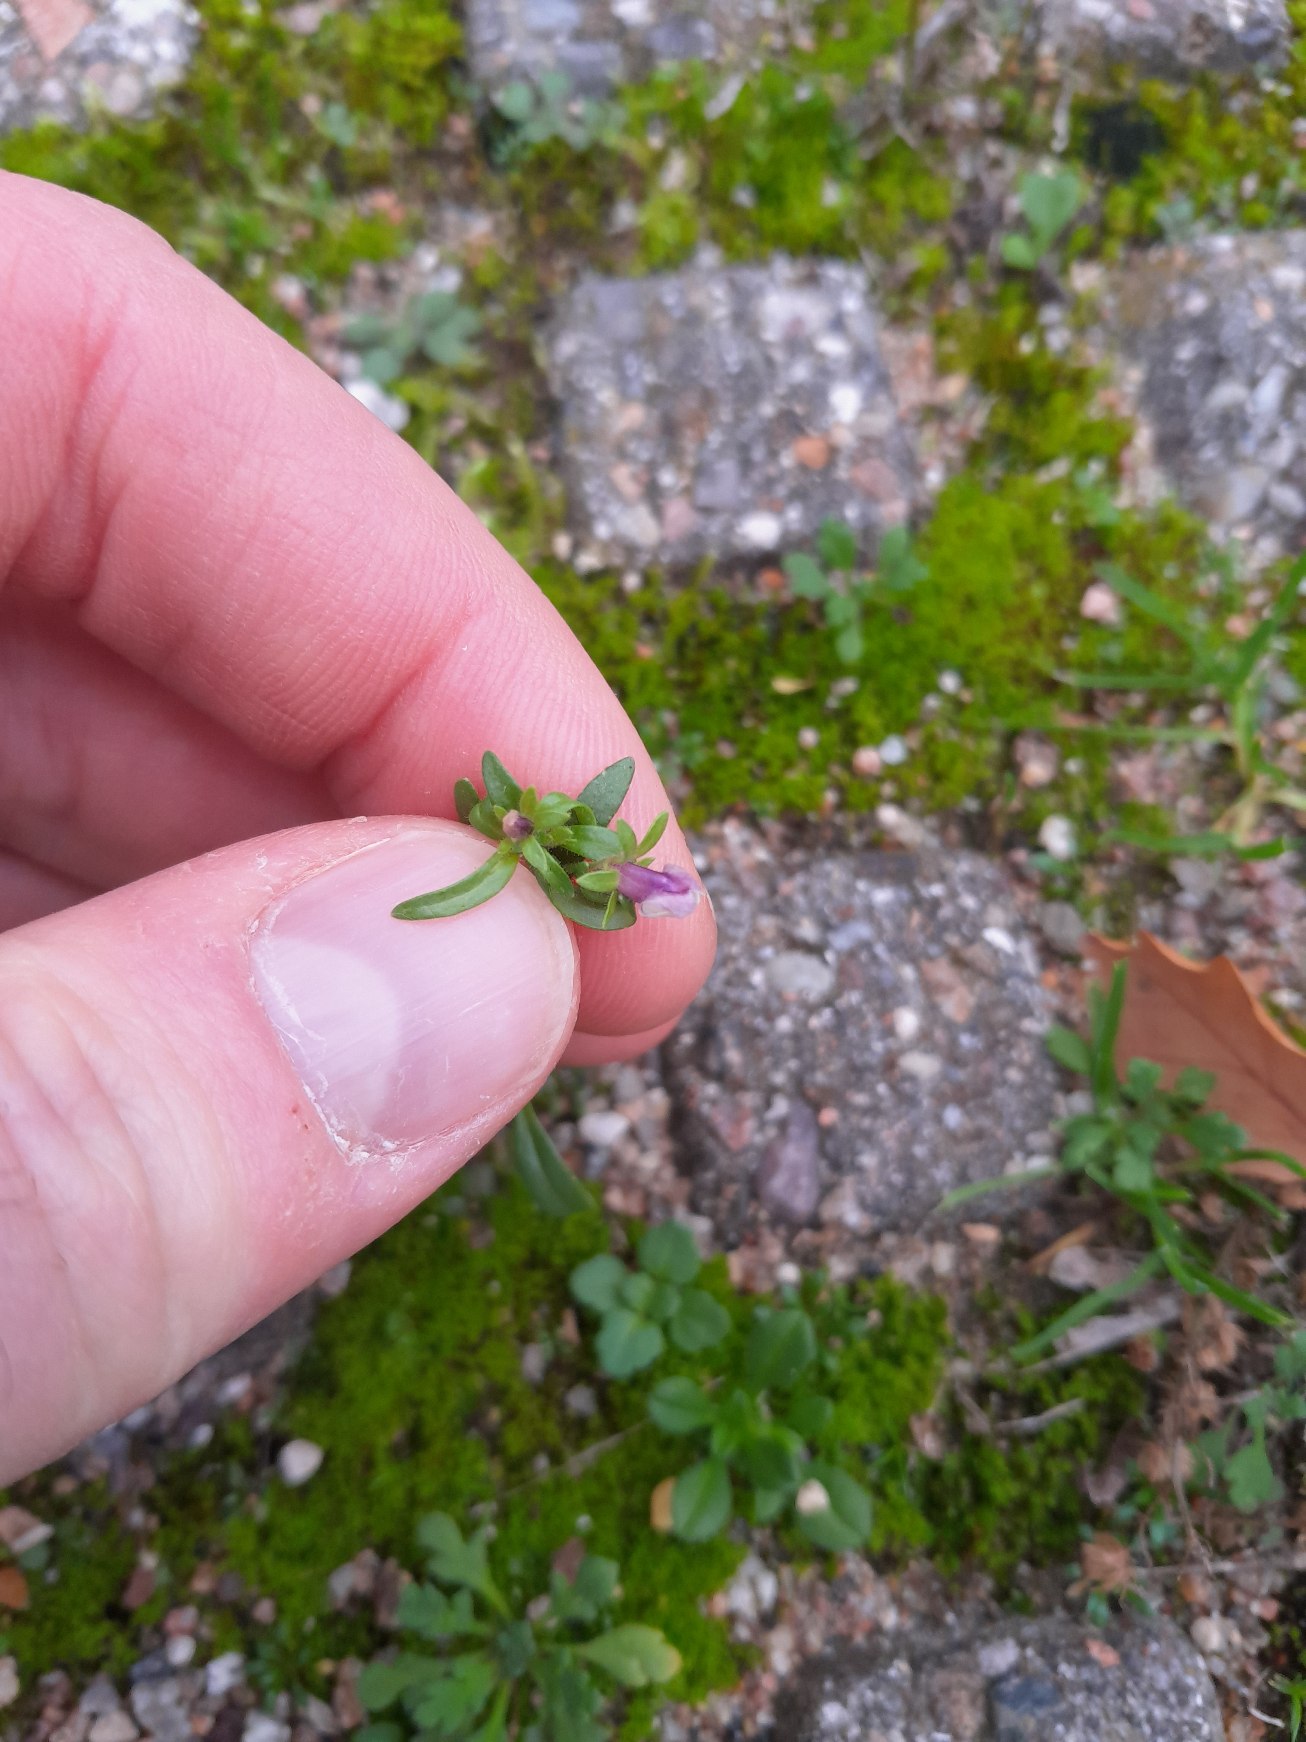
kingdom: Plantae
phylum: Tracheophyta
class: Magnoliopsida
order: Lamiales
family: Plantaginaceae
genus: Chaenorhinum
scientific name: Chaenorhinum minus
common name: Liden torskemund
